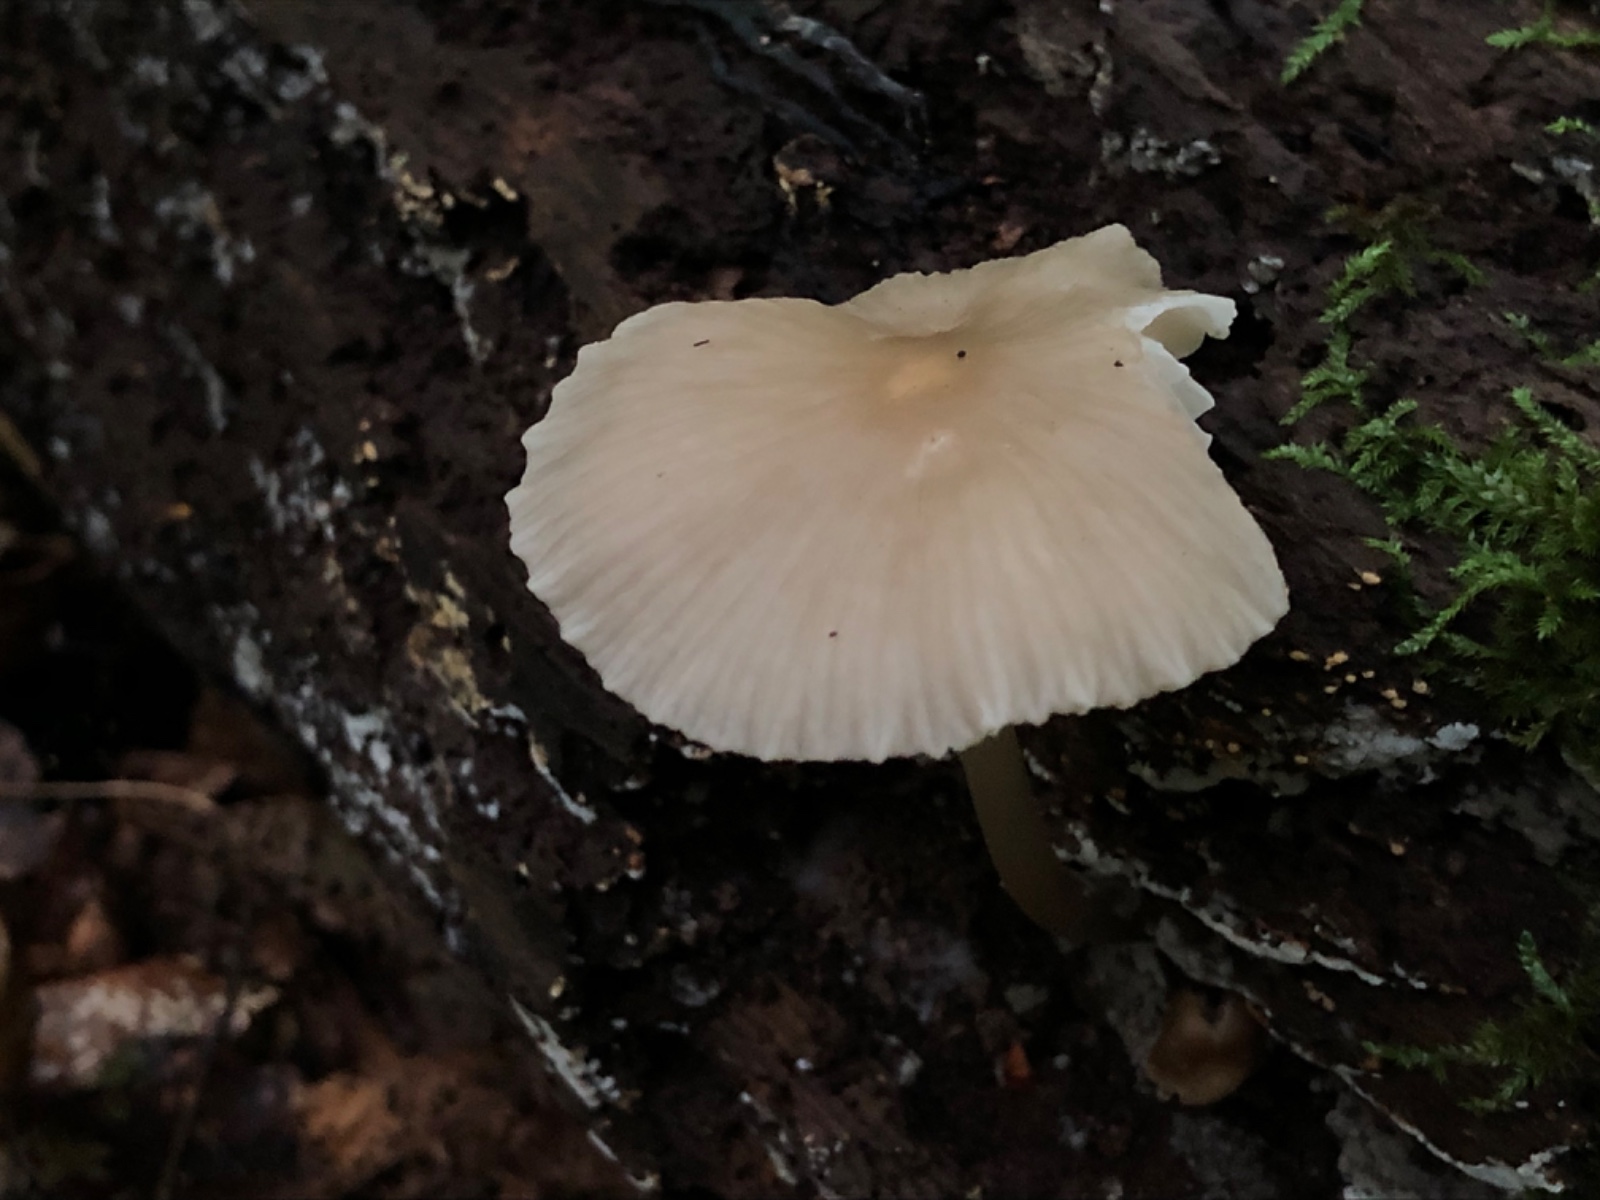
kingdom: Fungi
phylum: Basidiomycota
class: Agaricomycetes
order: Agaricales
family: Mycenaceae
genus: Mycena
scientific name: Mycena galericulata
